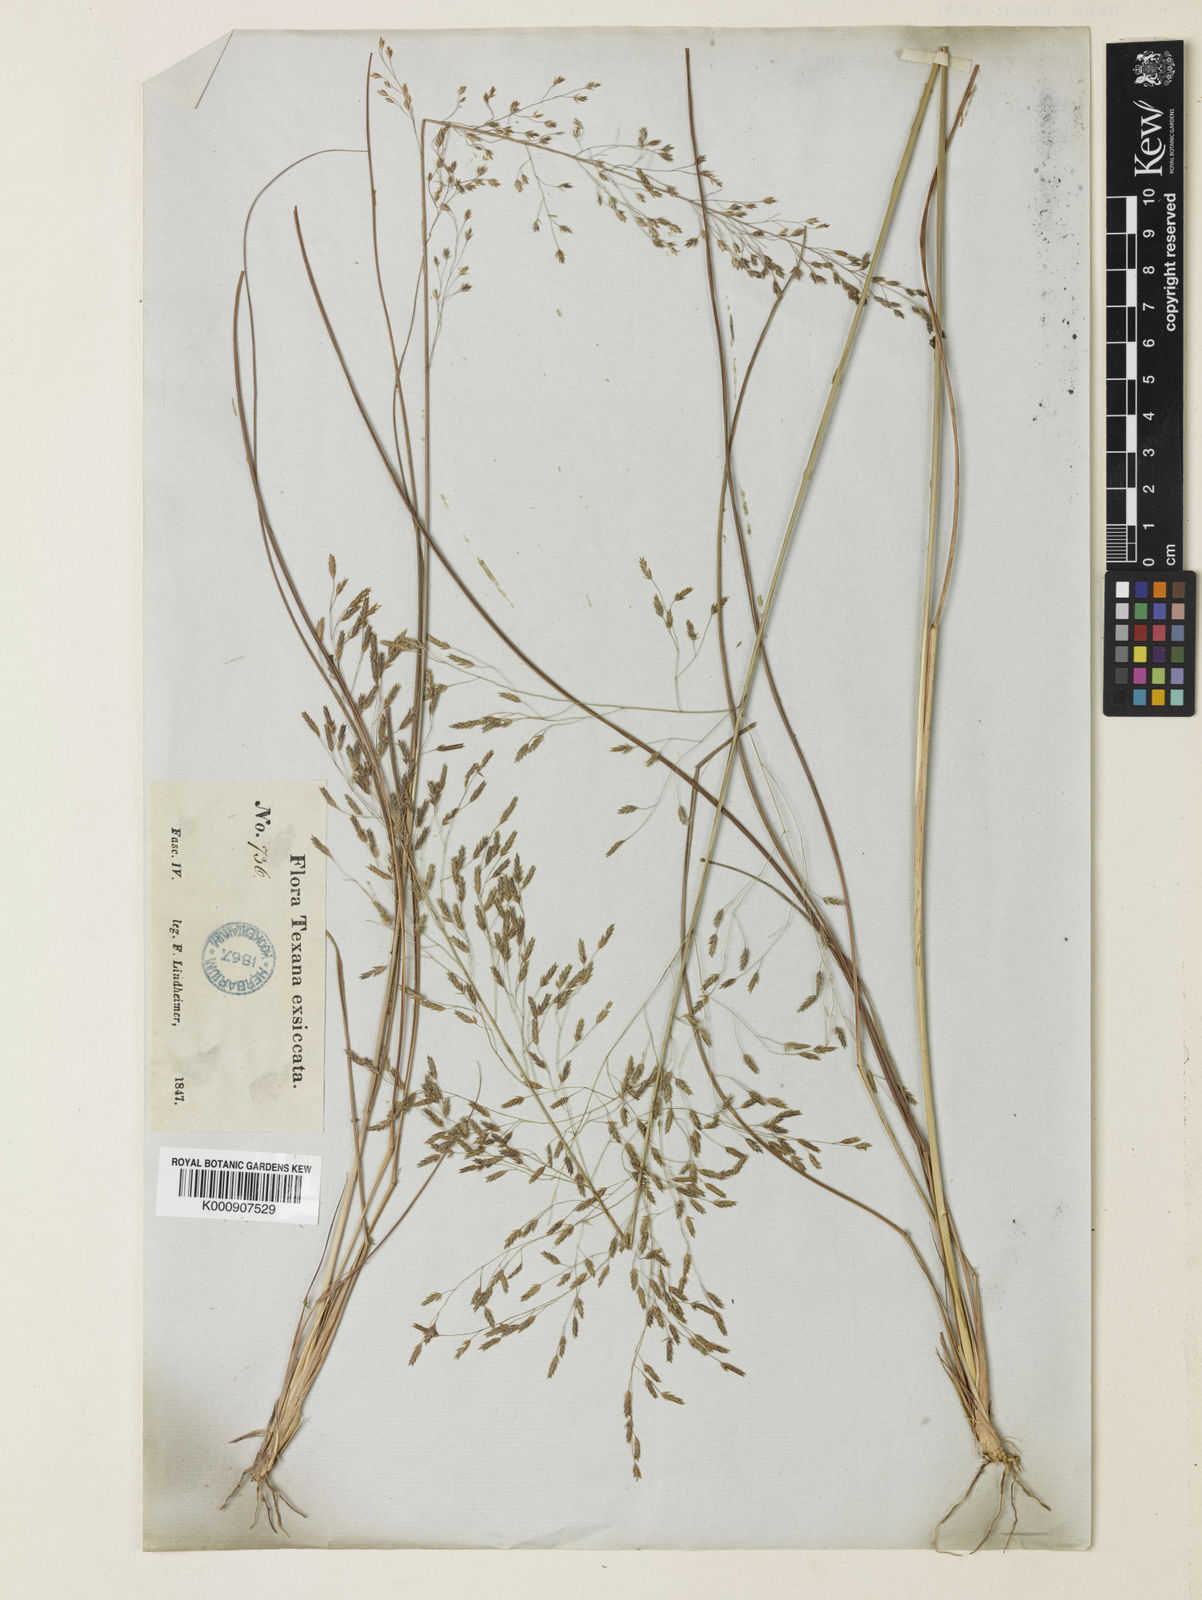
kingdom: Plantae
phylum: Tracheophyta
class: Liliopsida
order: Poales
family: Poaceae
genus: Eragrostis
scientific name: Eragrostis trichodes
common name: Sand love grass
